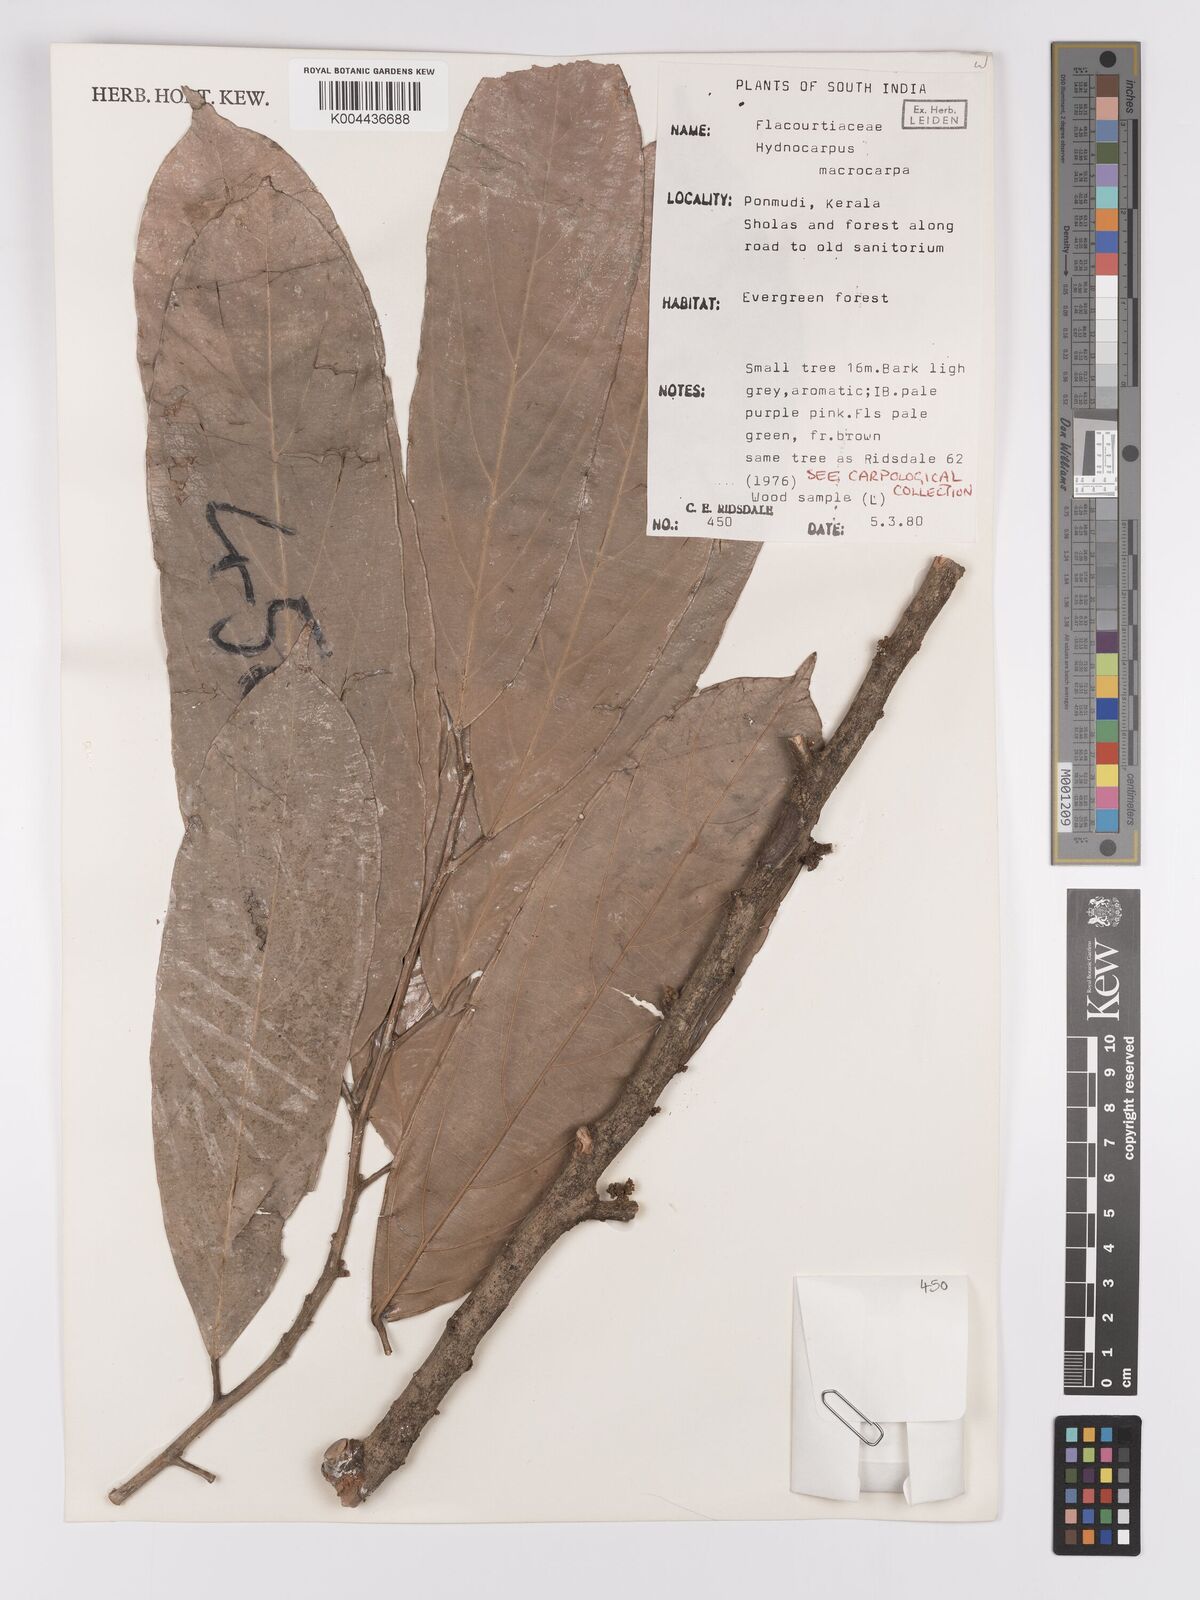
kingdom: Plantae
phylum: Tracheophyta
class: Magnoliopsida
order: Malpighiales
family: Achariaceae
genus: Hydnocarpus
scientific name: Hydnocarpus macrocarpus
